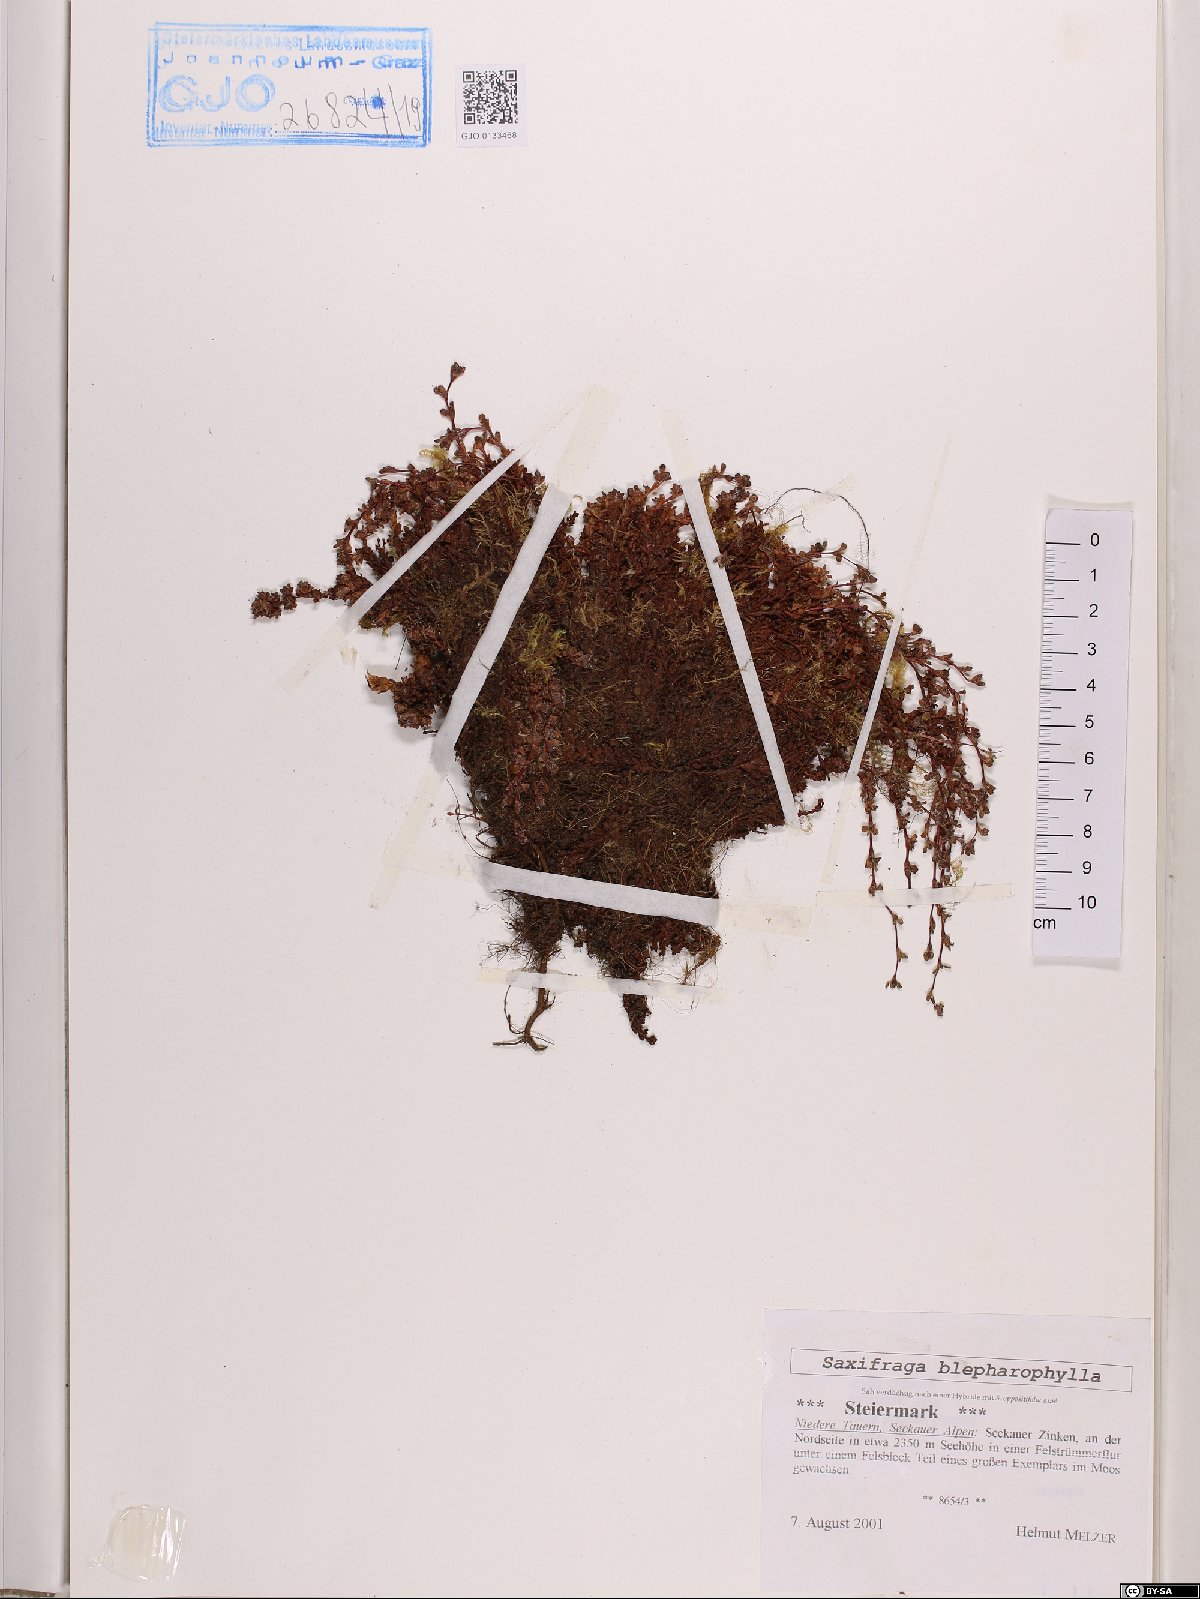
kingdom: Plantae
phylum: Tracheophyta
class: Magnoliopsida
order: Saxifragales
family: Saxifragaceae
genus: Saxifraga
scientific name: Saxifraga oppositifolia
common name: Purple saxifrage
